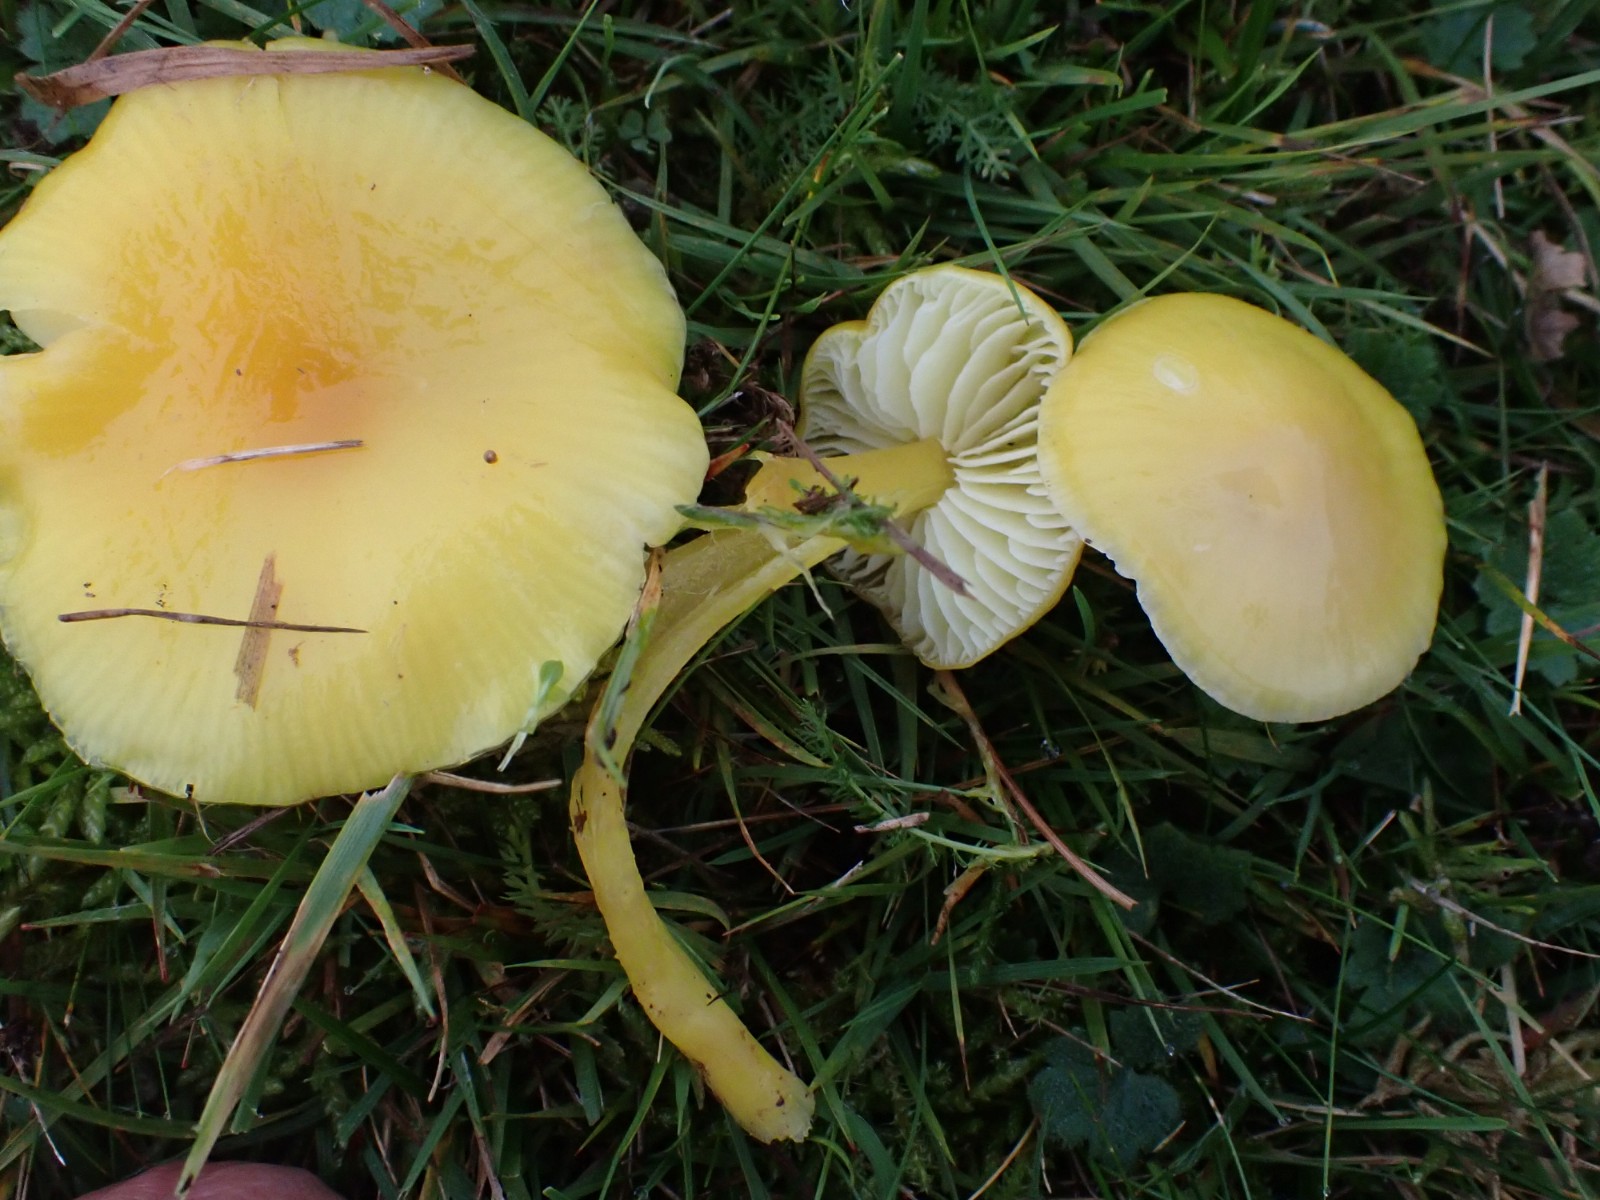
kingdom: Fungi
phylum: Basidiomycota
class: Agaricomycetes
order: Agaricales
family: Hygrophoraceae
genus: Hygrocybe
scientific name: Hygrocybe chlorophana
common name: gul vokshat
